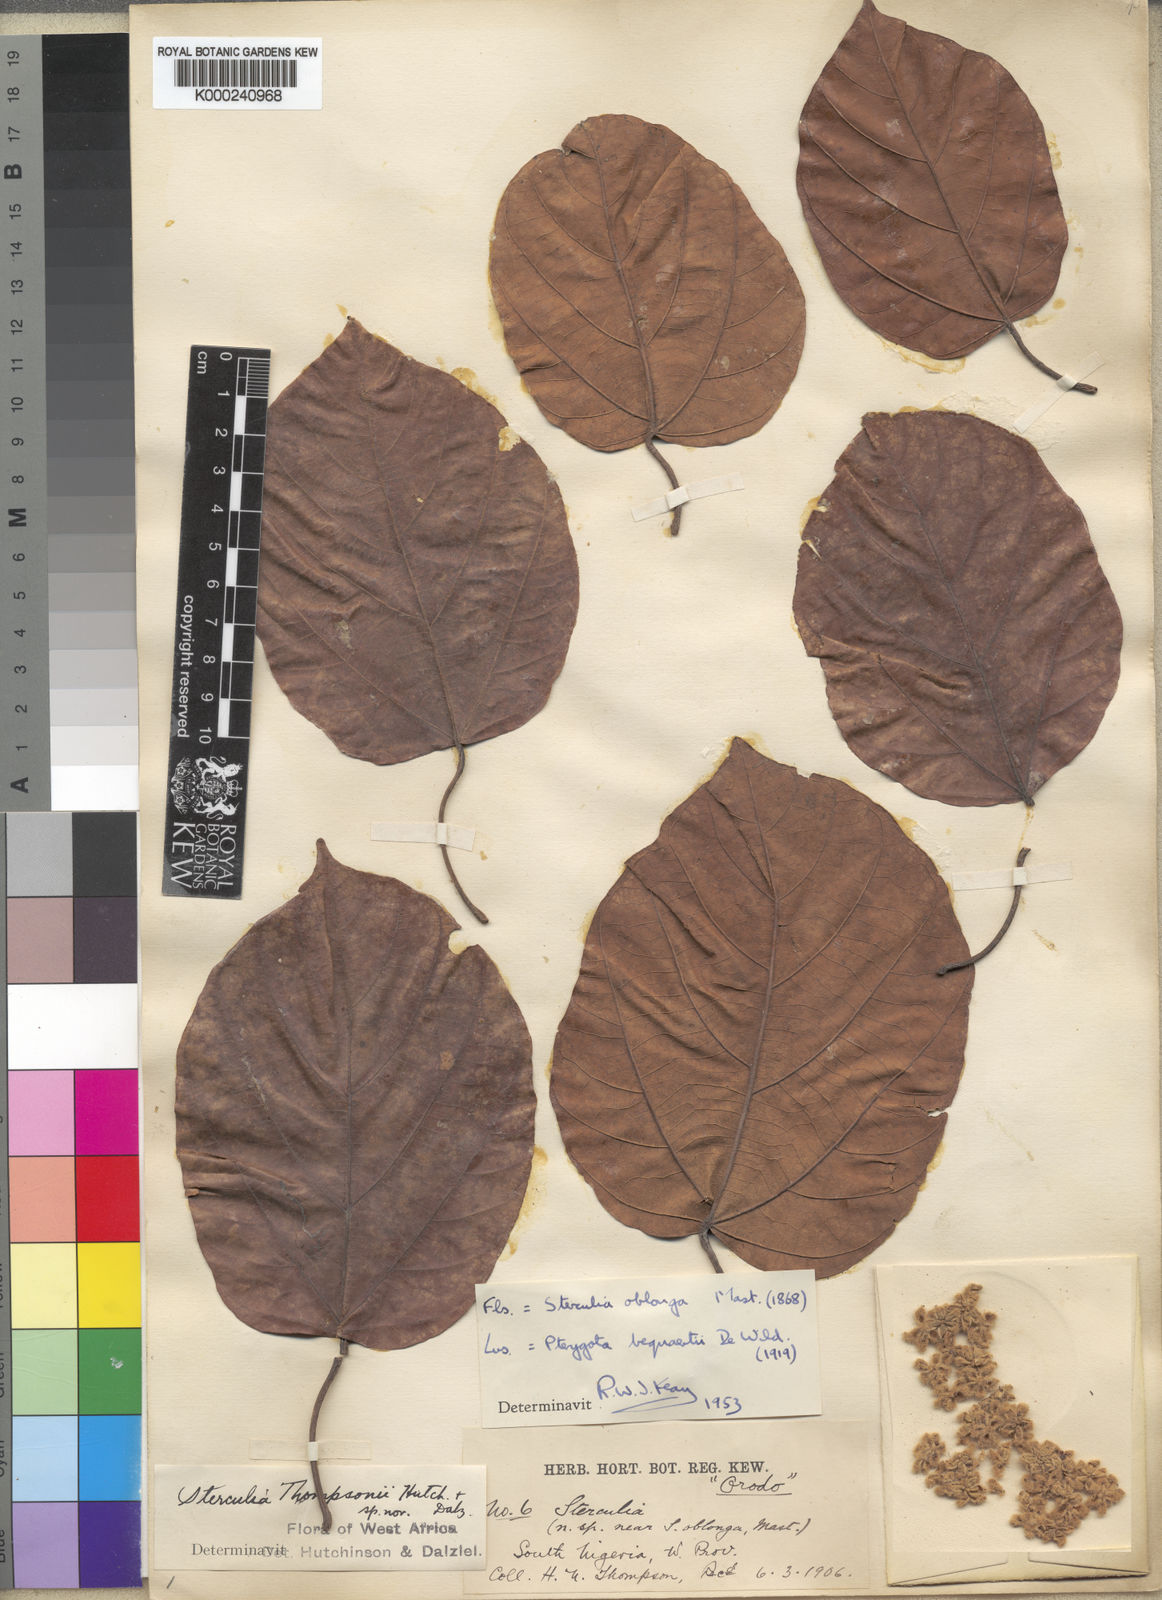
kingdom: Plantae
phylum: Tracheophyta
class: Magnoliopsida
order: Malvales
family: Malvaceae
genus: Sterculia
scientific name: Sterculia oblonga
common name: Yellow sterculia
